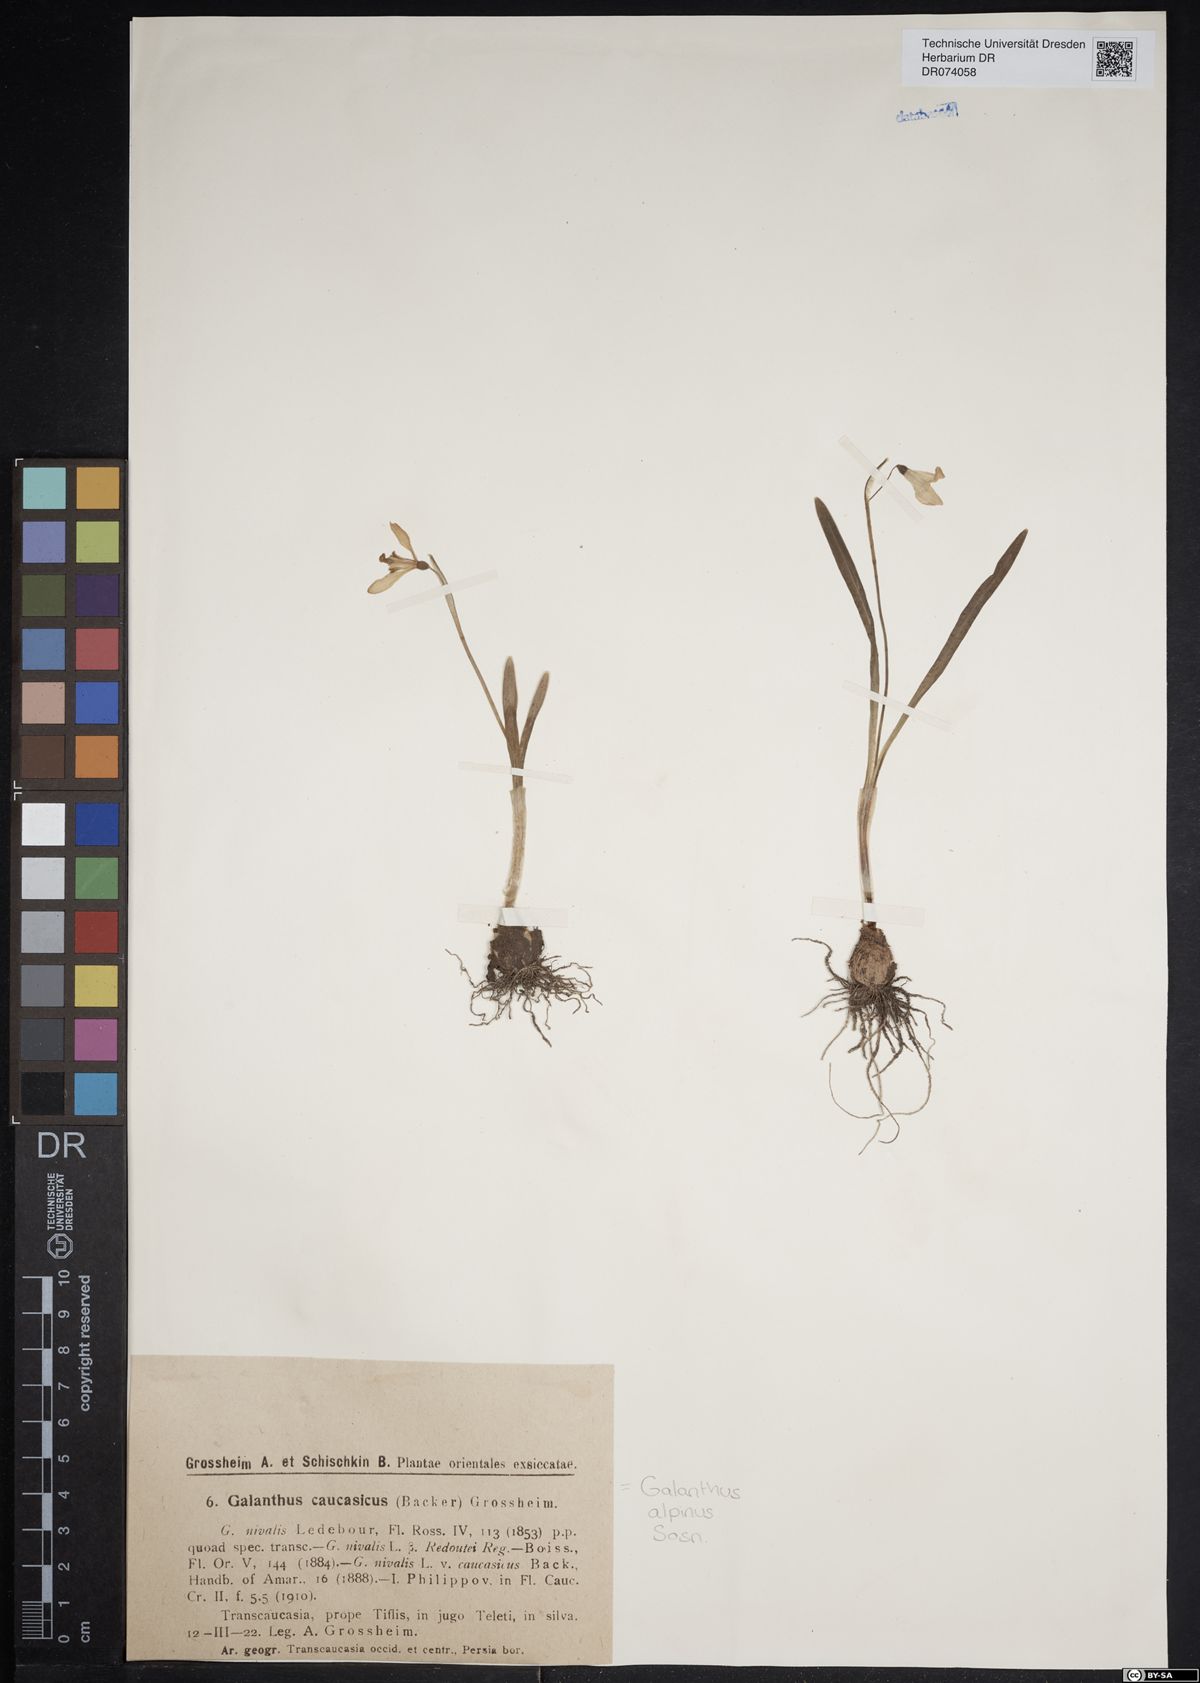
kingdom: Plantae
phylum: Tracheophyta
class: Liliopsida
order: Asparagales
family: Amaryllidaceae
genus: Galanthus
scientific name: Galanthus alpinus
